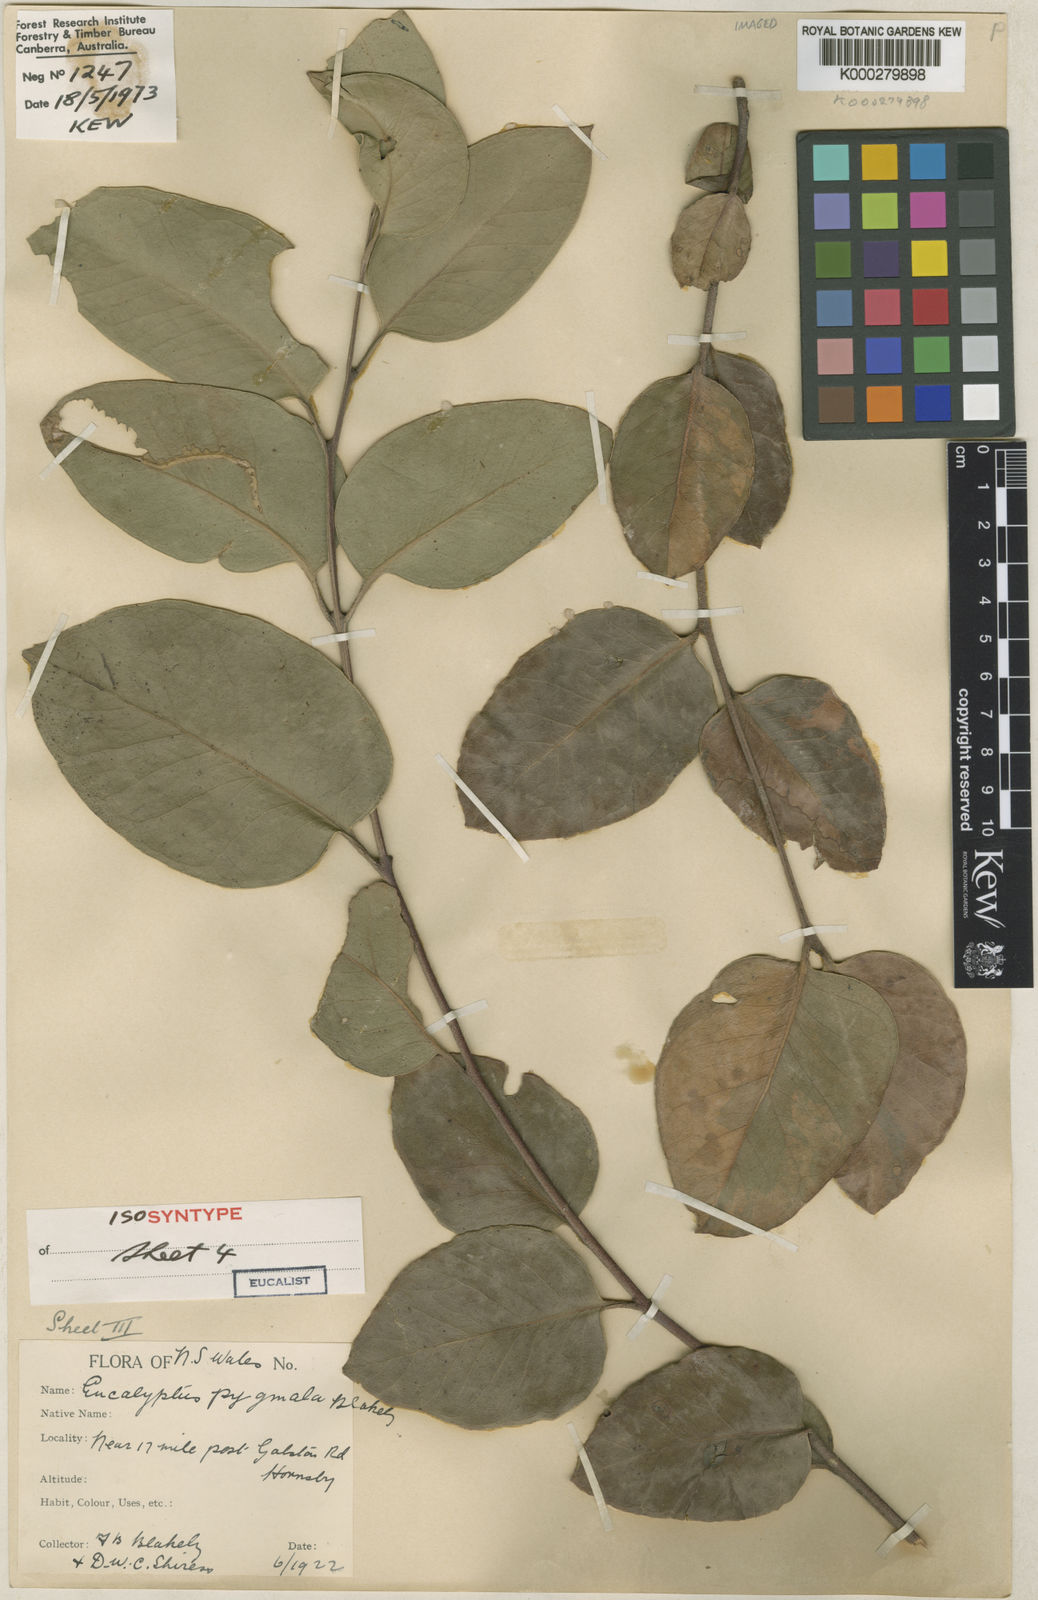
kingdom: Plantae
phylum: Tracheophyta
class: Magnoliopsida
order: Myrtales
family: Myrtaceae
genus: Eucalyptus
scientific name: Eucalyptus pygmaea
